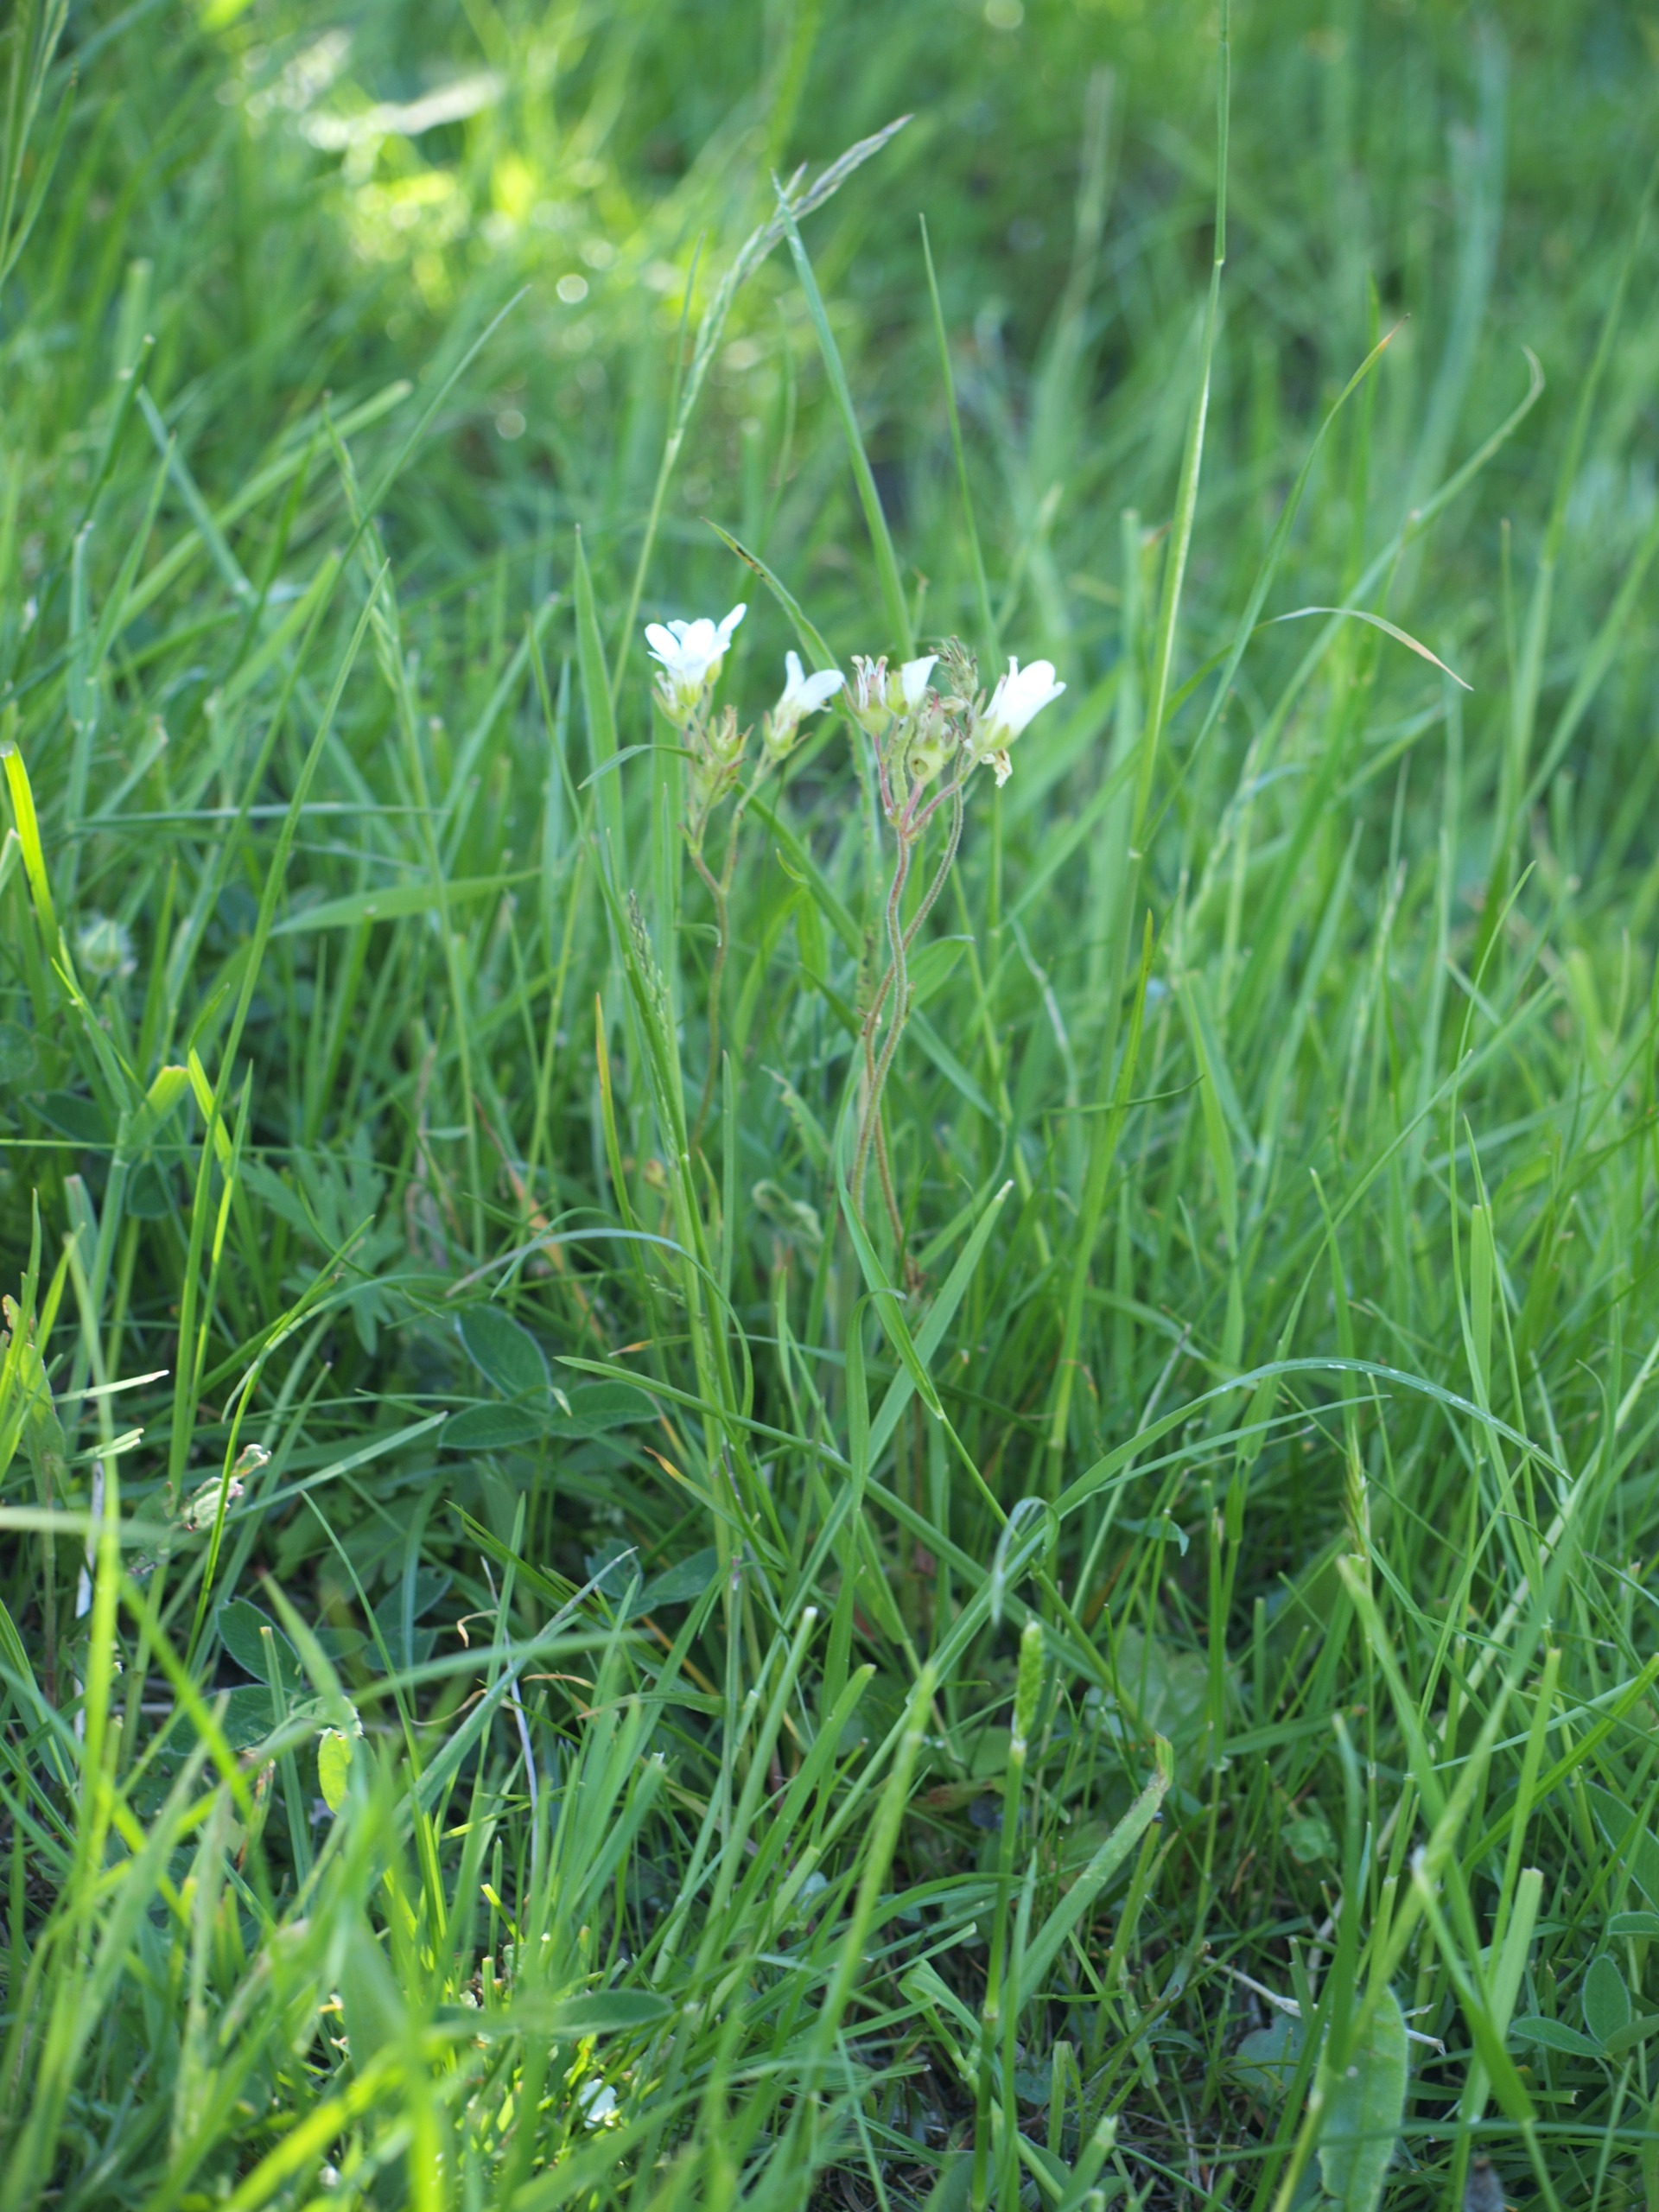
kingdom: Plantae
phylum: Tracheophyta
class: Magnoliopsida
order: Saxifragales
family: Saxifragaceae
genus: Saxifraga
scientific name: Saxifraga granulata
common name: Kornet stenbræk
